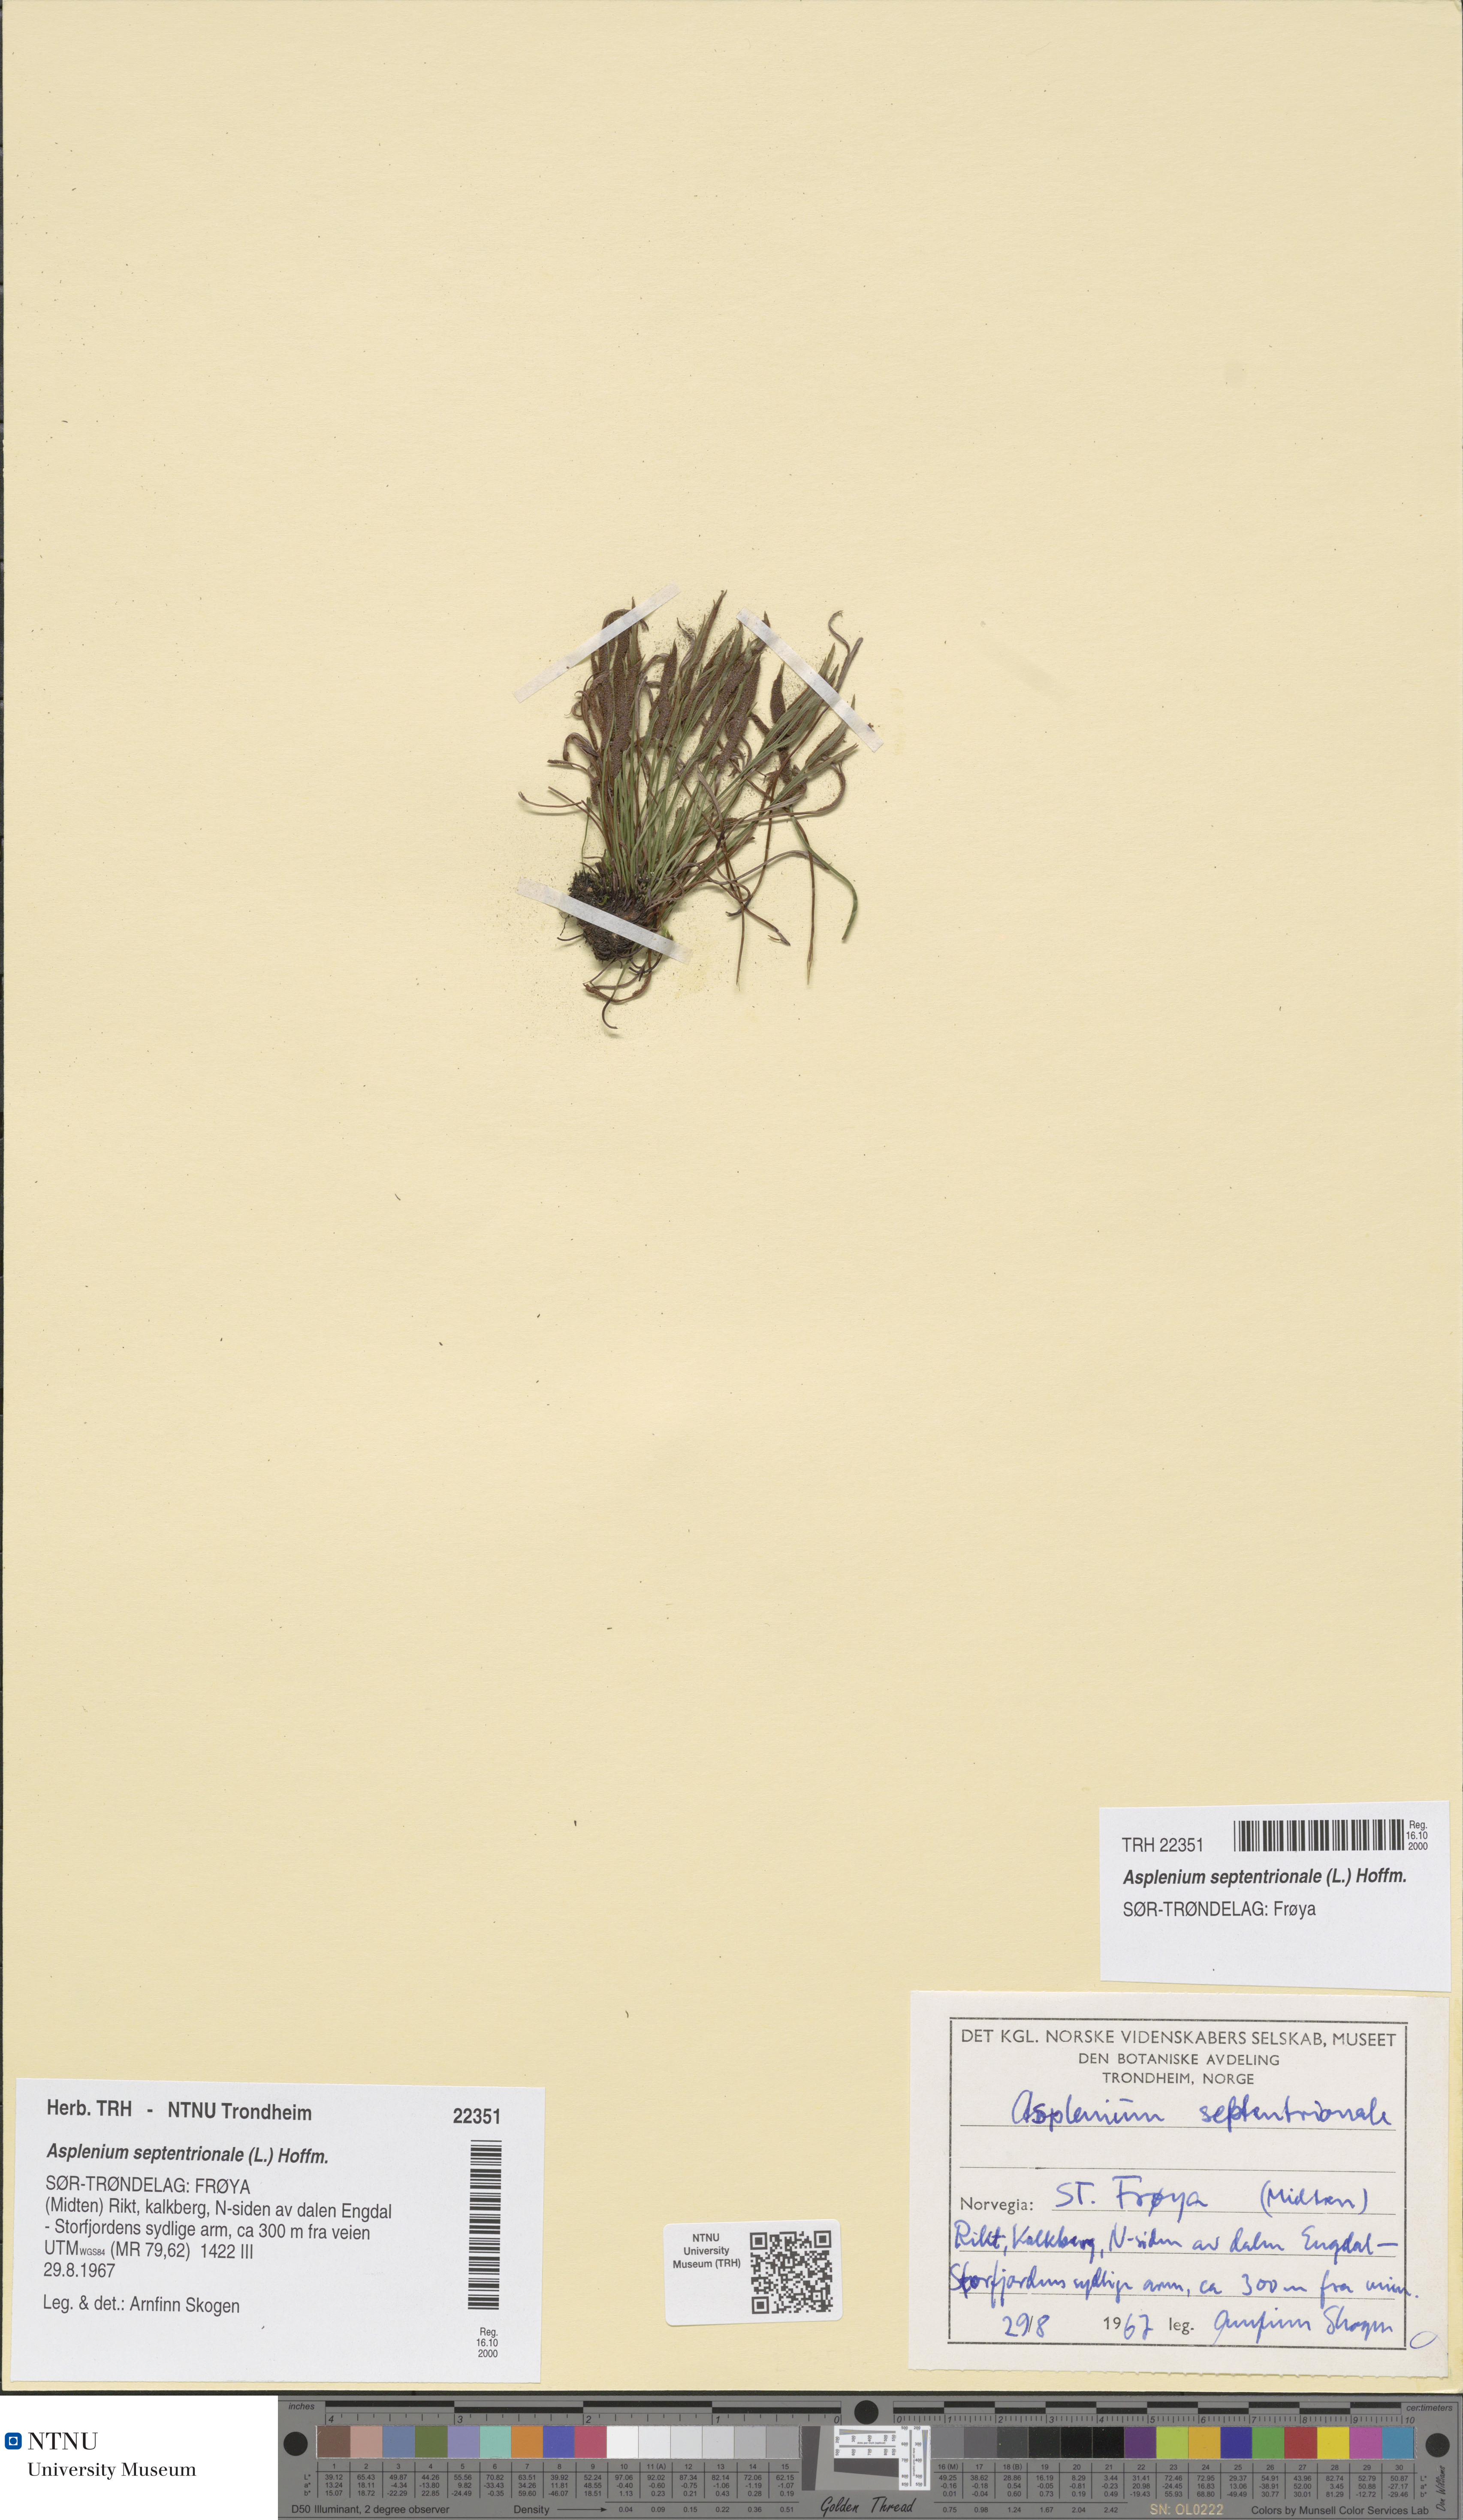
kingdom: Plantae
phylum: Tracheophyta
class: Polypodiopsida
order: Polypodiales
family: Aspleniaceae
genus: Asplenium
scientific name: Asplenium septentrionale
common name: Forked spleenwort
